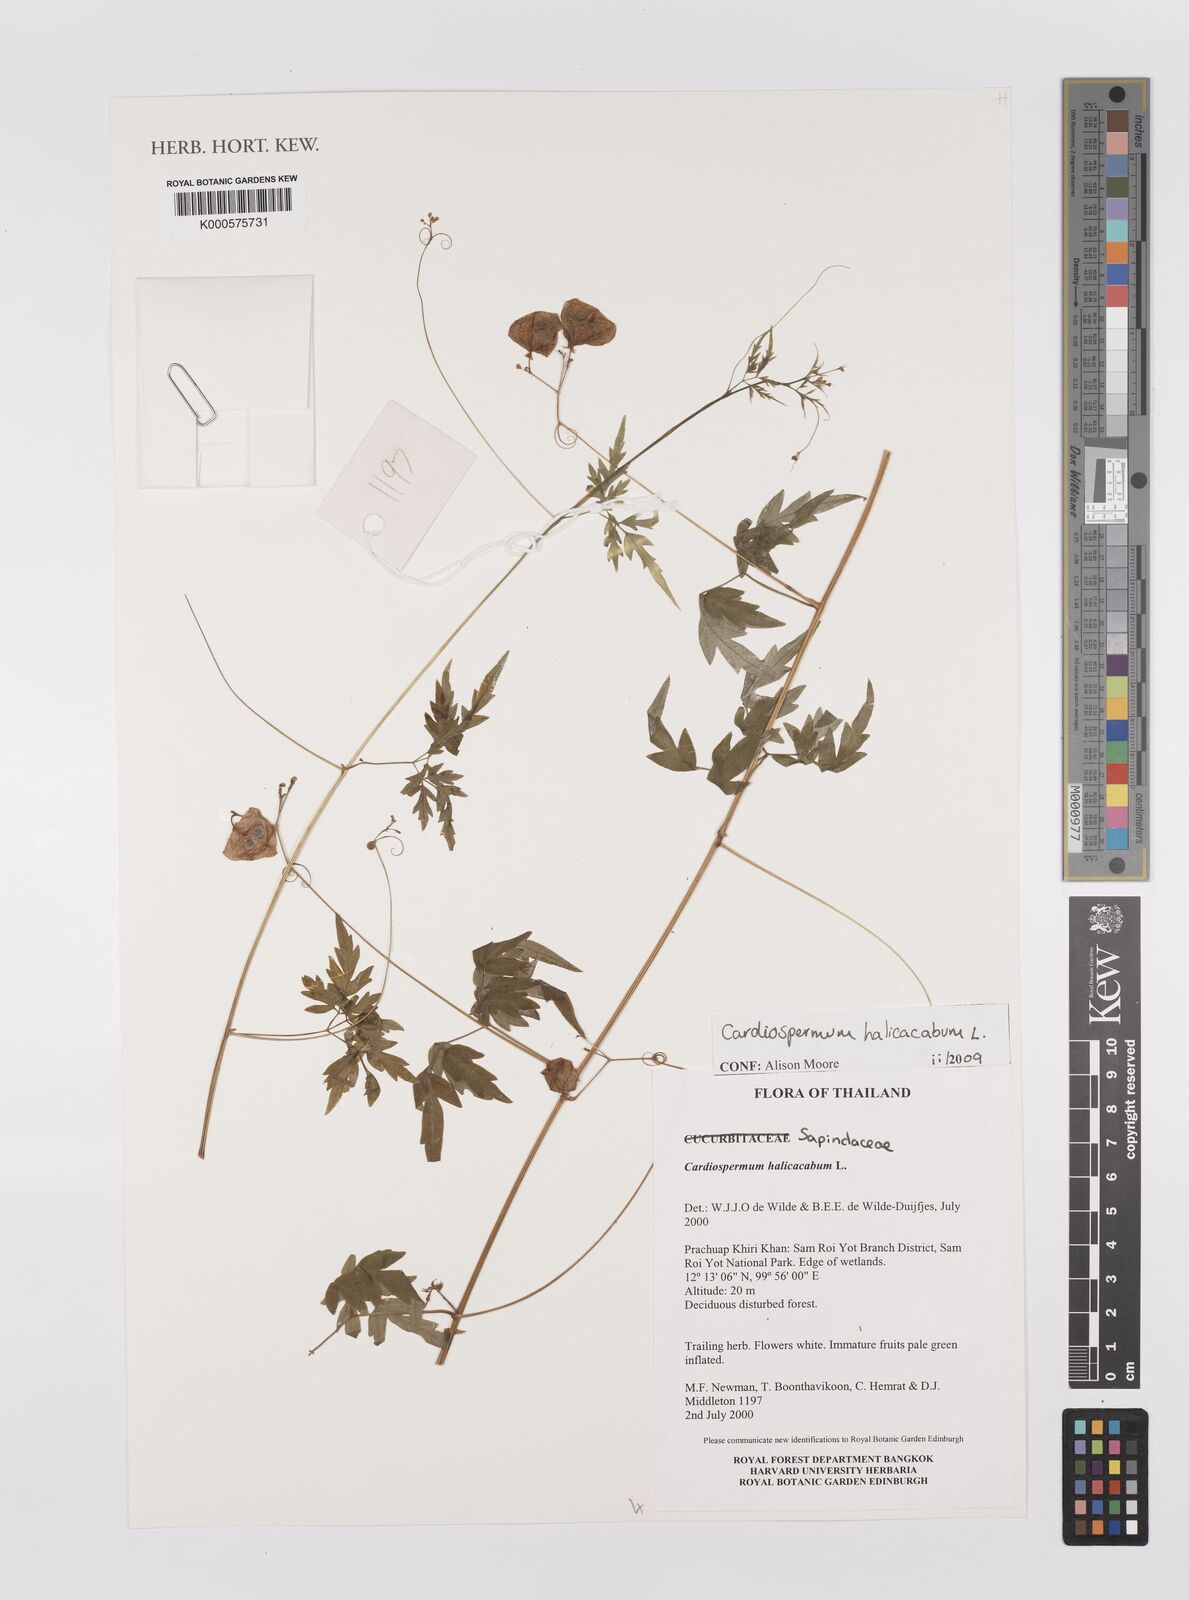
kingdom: Plantae
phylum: Tracheophyta
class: Magnoliopsida
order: Sapindales
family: Sapindaceae
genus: Allophylus
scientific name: Allophylus
